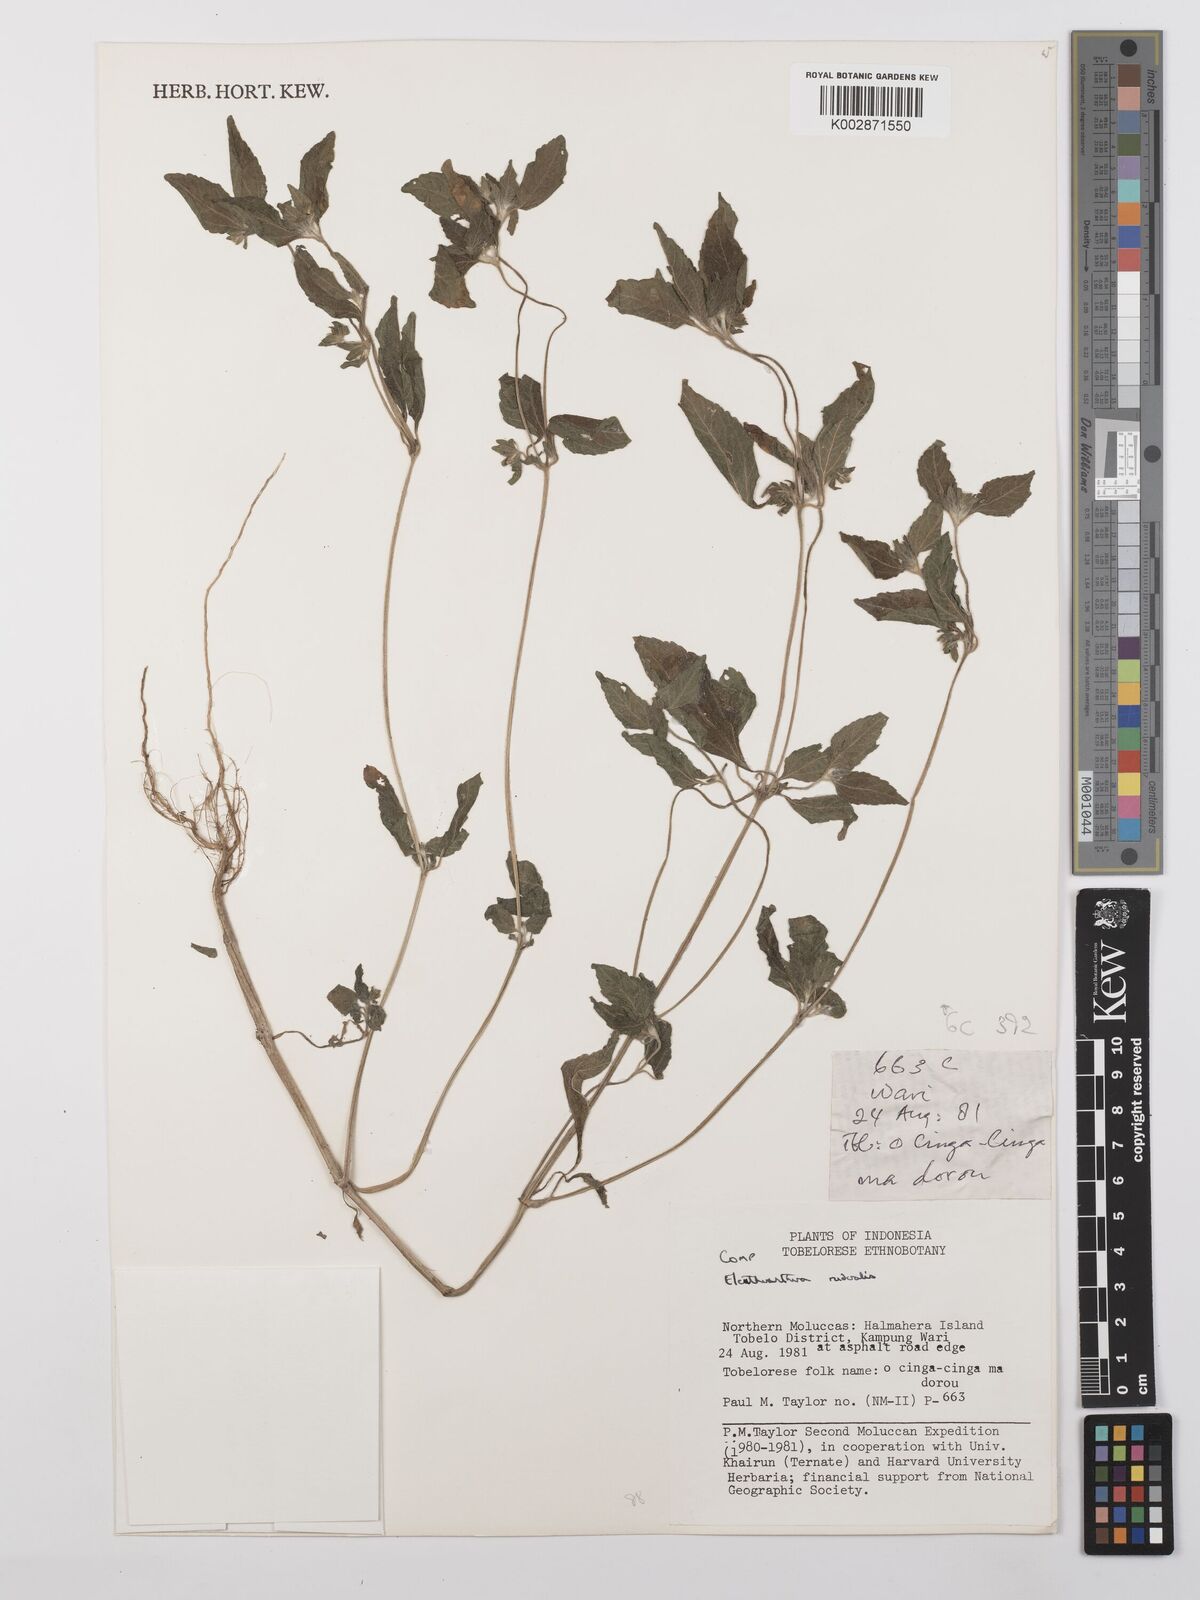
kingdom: Plantae
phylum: Tracheophyta
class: Magnoliopsida
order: Asterales
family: Asteraceae
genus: Eleutheranthera
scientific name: Eleutheranthera ruderalis
